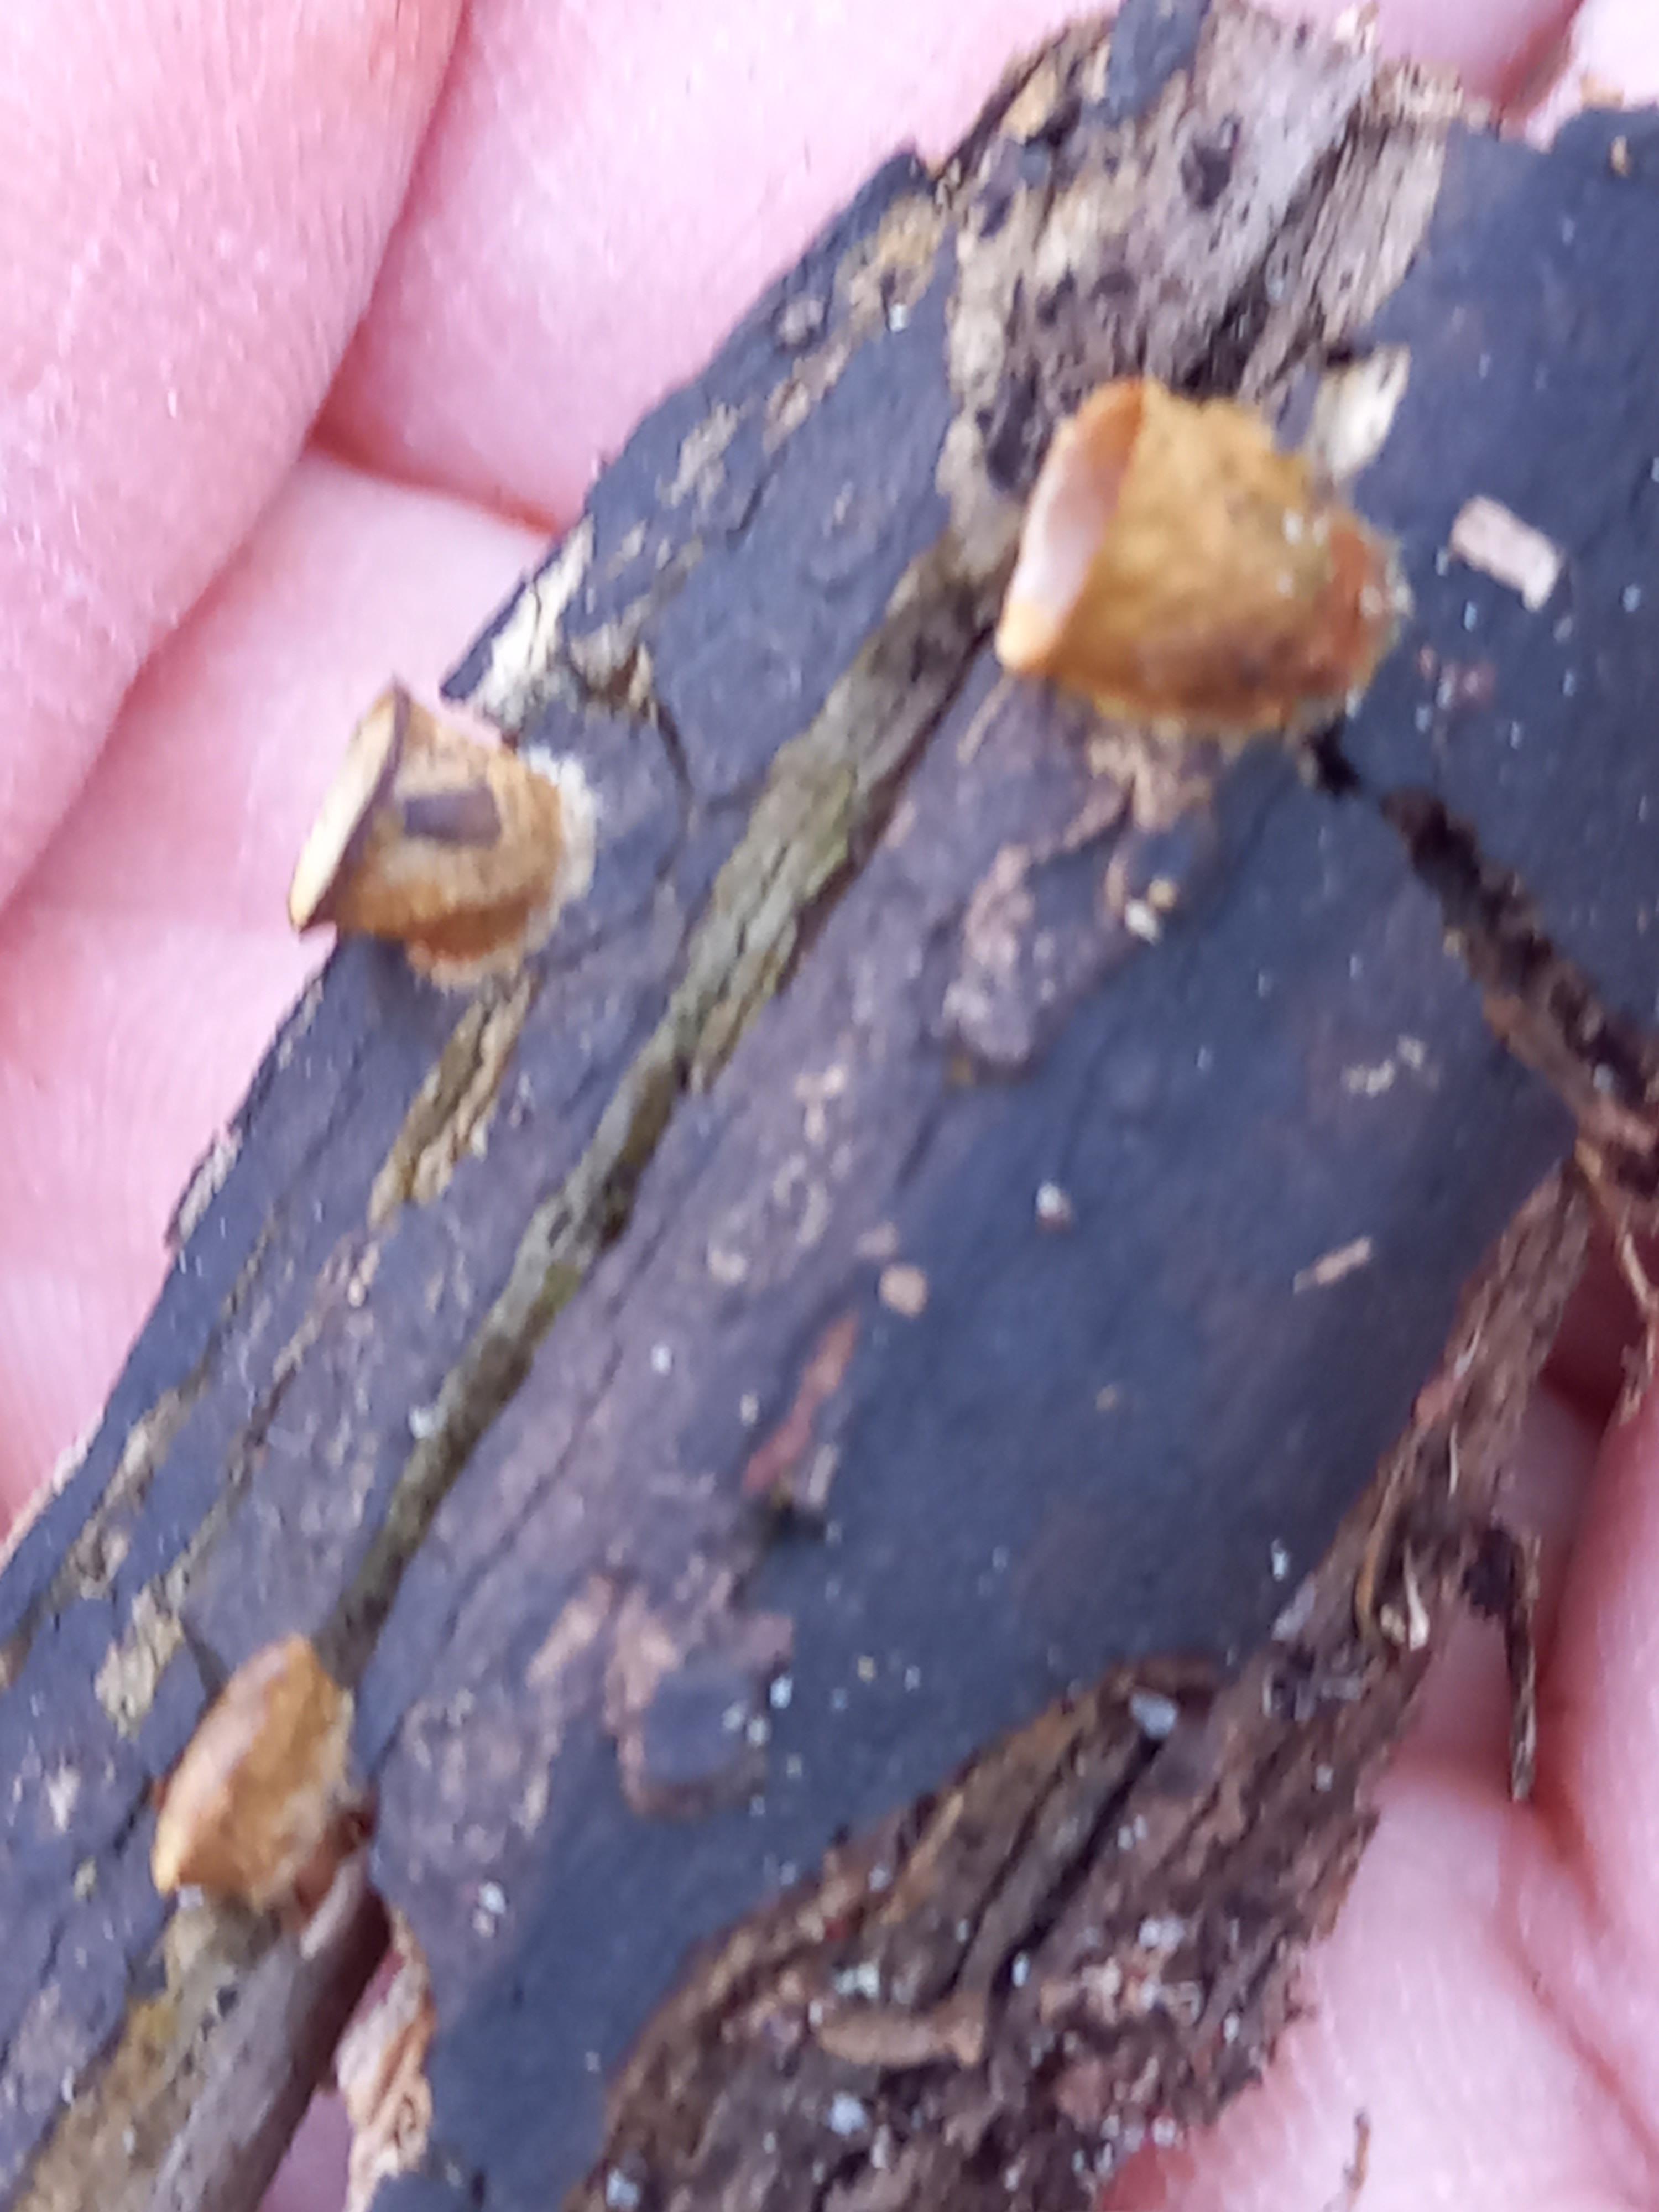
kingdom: Fungi
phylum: Basidiomycota
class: Agaricomycetes
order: Agaricales
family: Nidulariaceae
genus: Crucibulum
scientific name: Crucibulum crucibuliforme
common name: krukkesvamp
